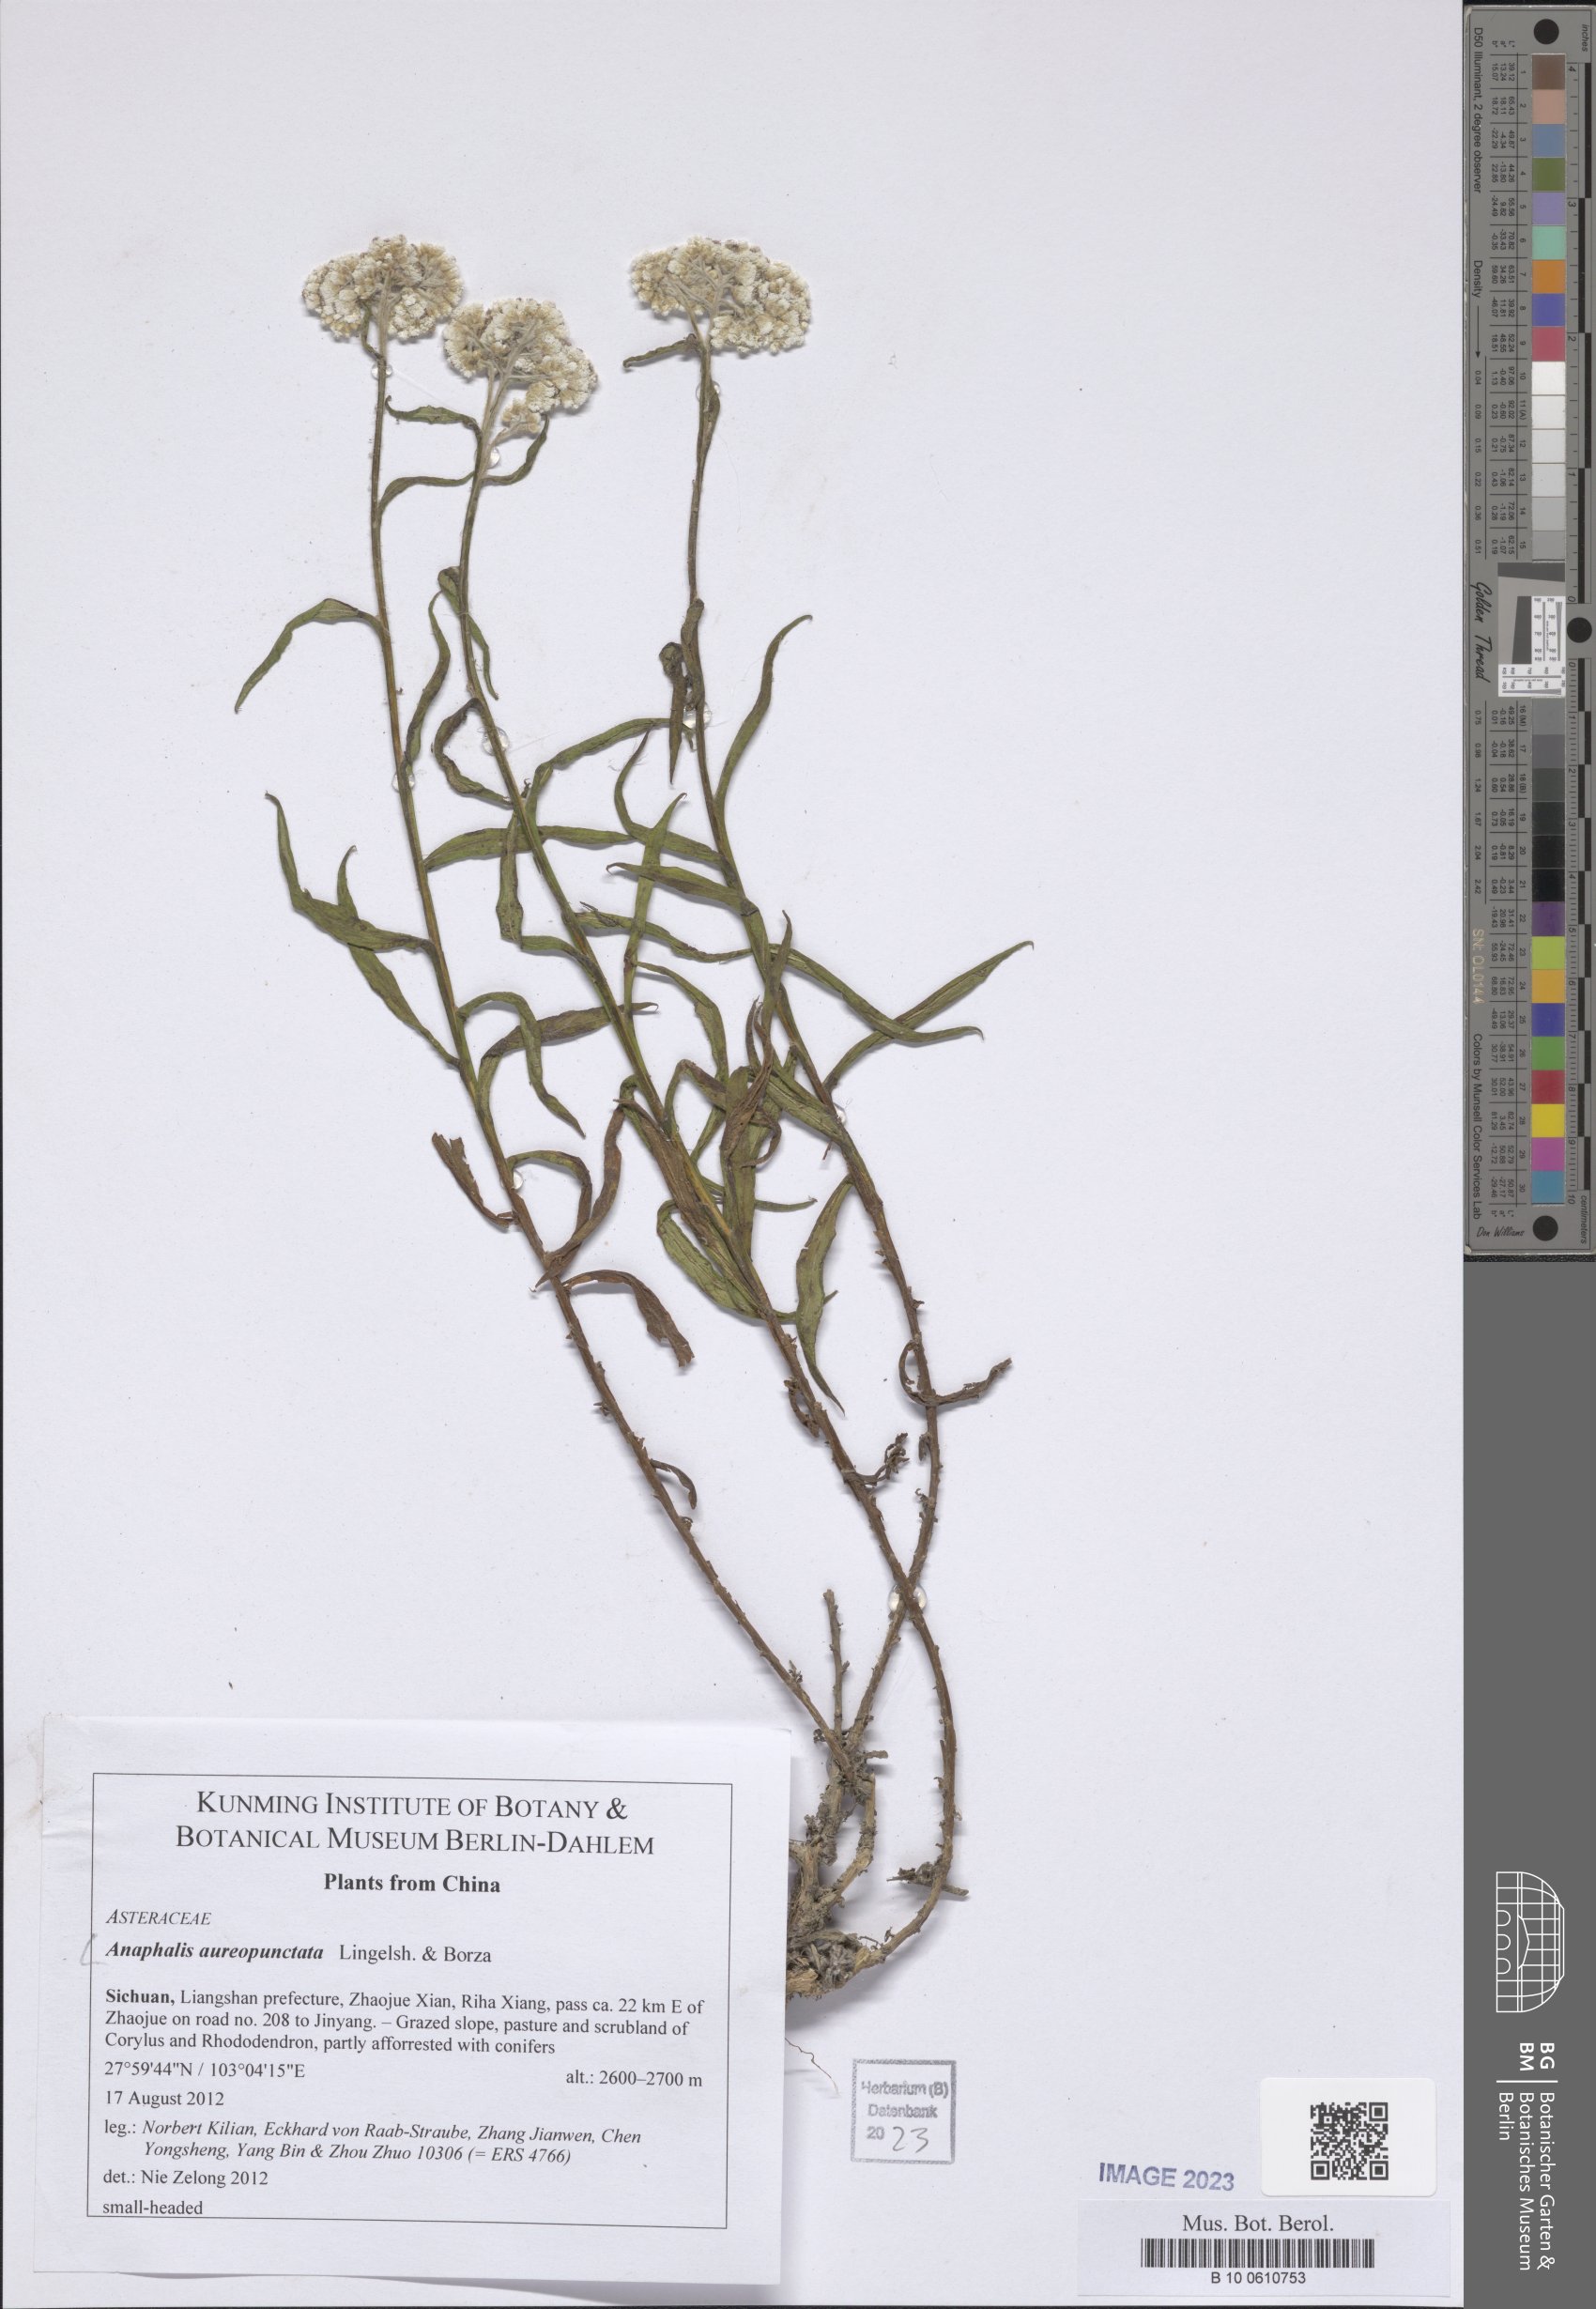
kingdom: Plantae
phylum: Tracheophyta
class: Magnoliopsida
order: Asterales
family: Asteraceae
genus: Anaphalis
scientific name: Anaphalis aureopunctata
